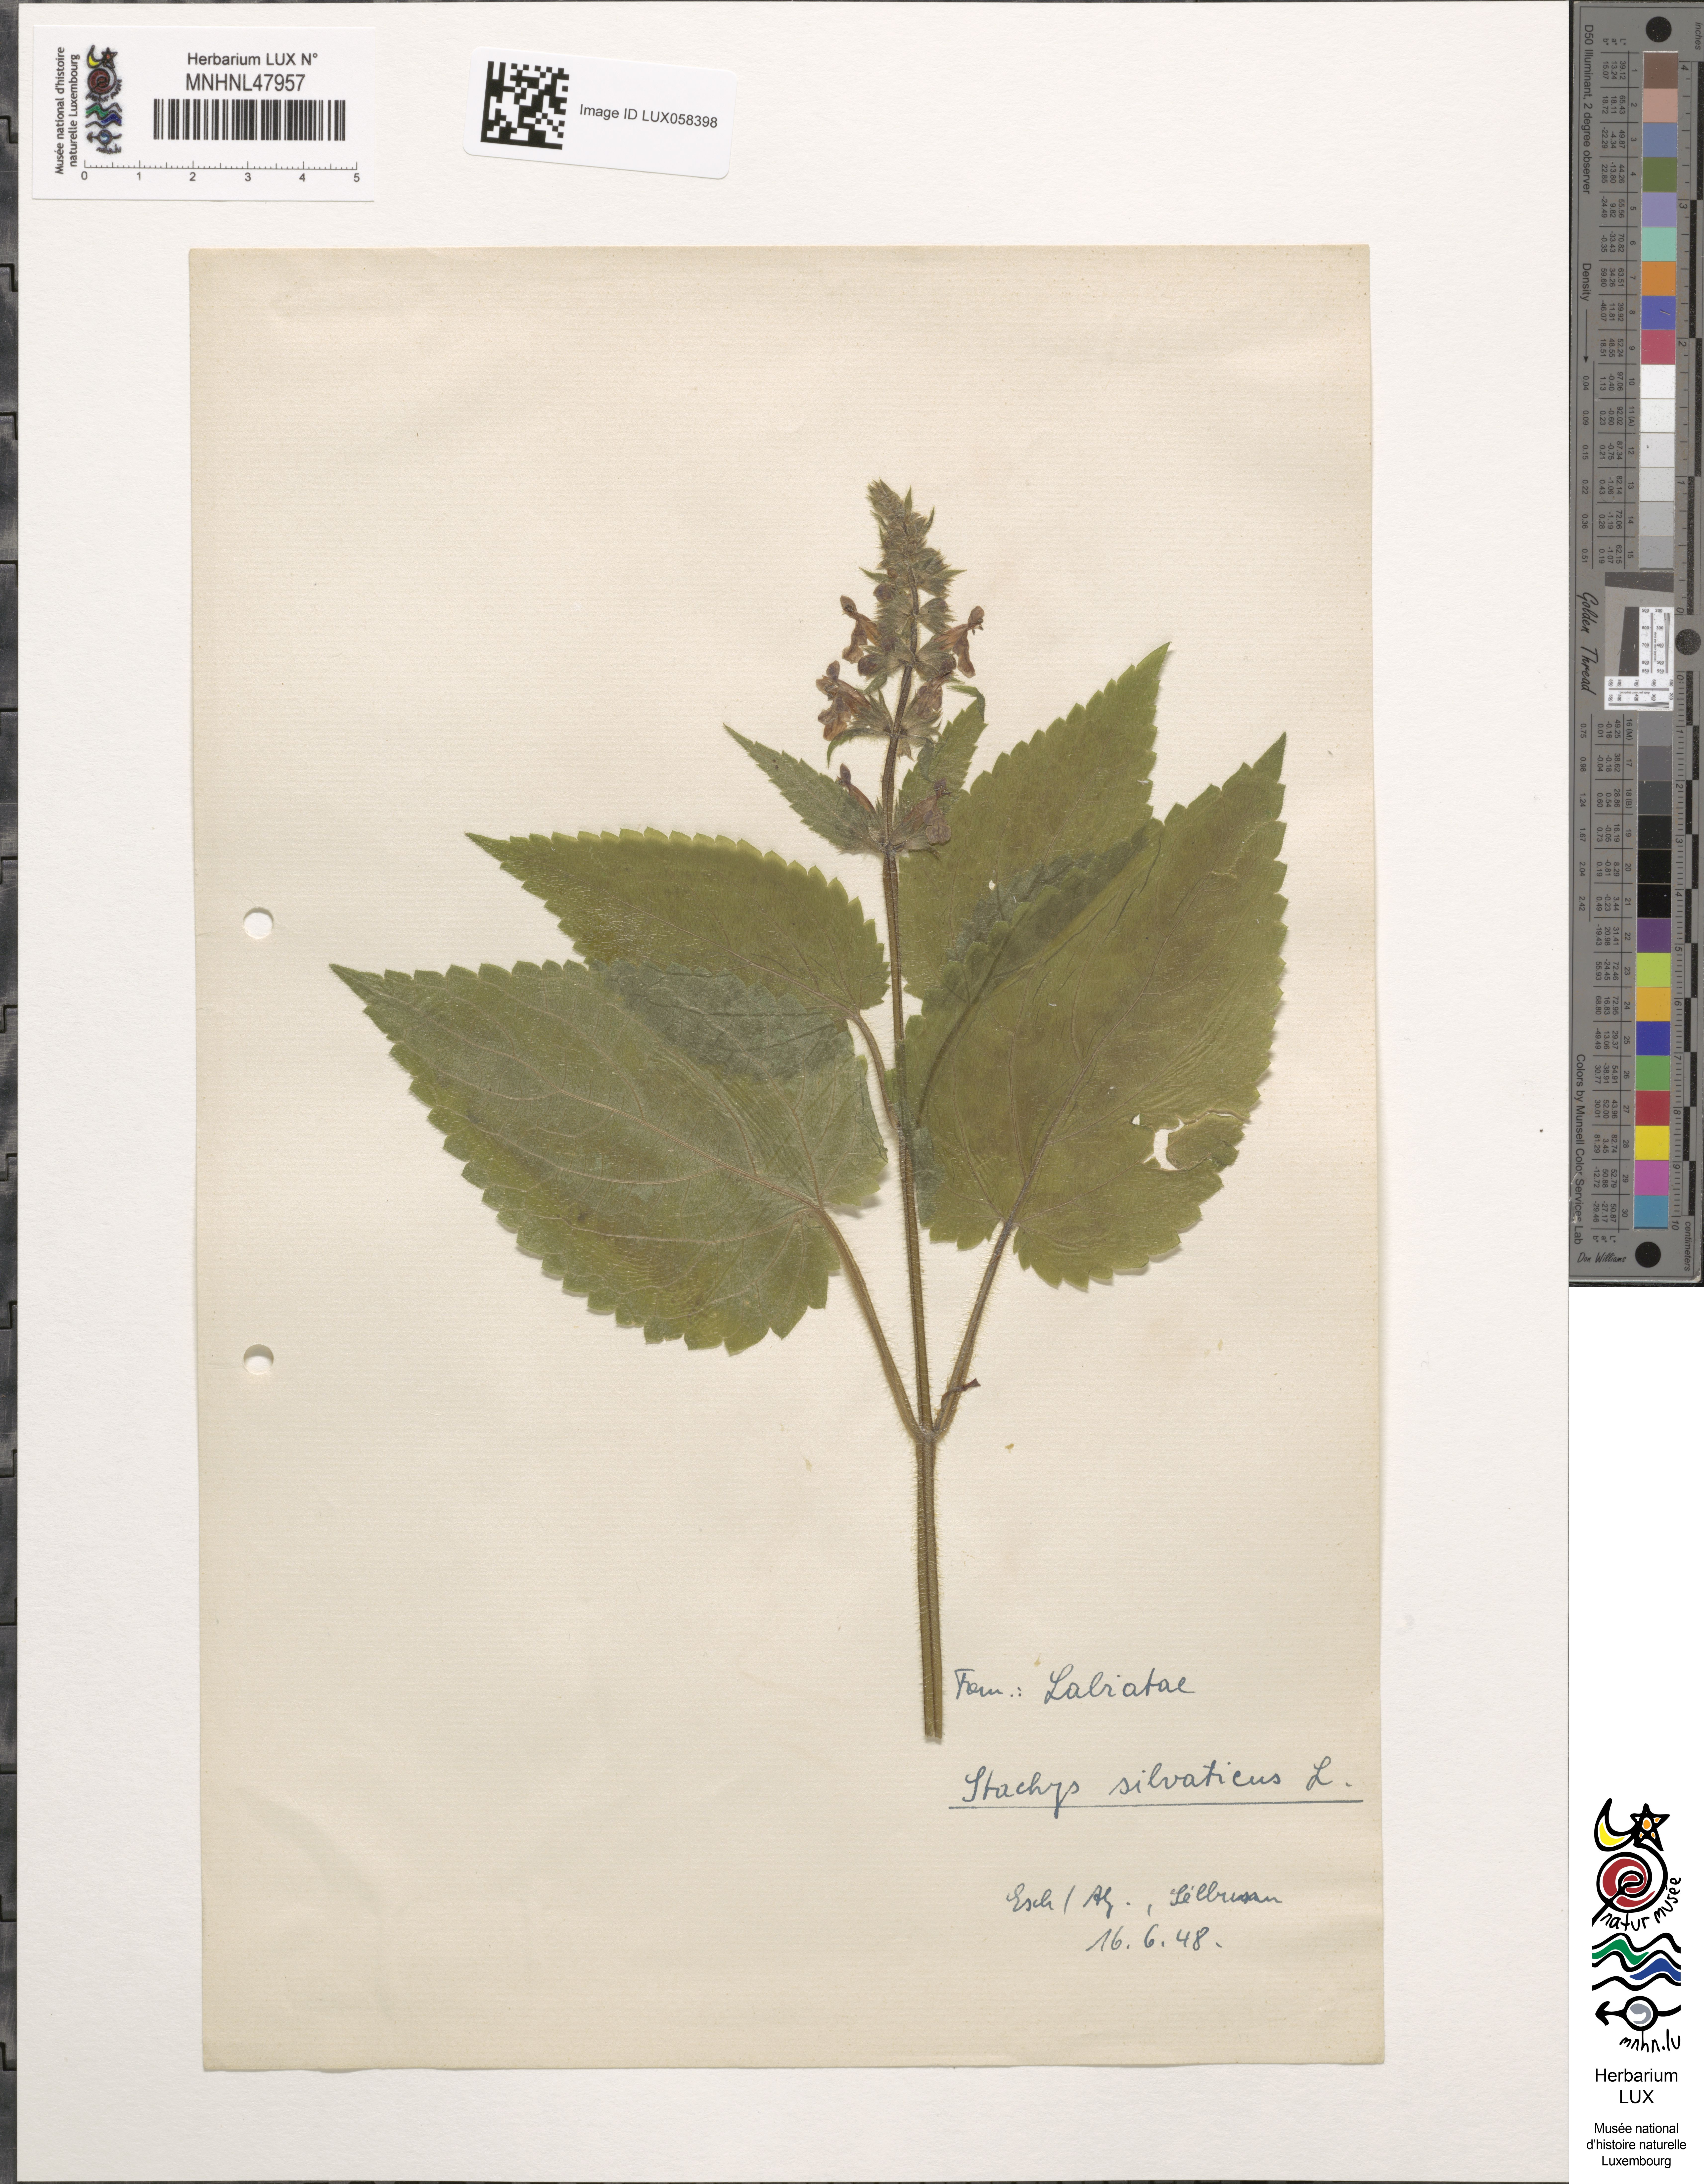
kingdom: Plantae
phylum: Tracheophyta
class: Magnoliopsida
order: Lamiales
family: Lamiaceae
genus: Stachys
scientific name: Stachys sylvatica
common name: Hedge woundwort
